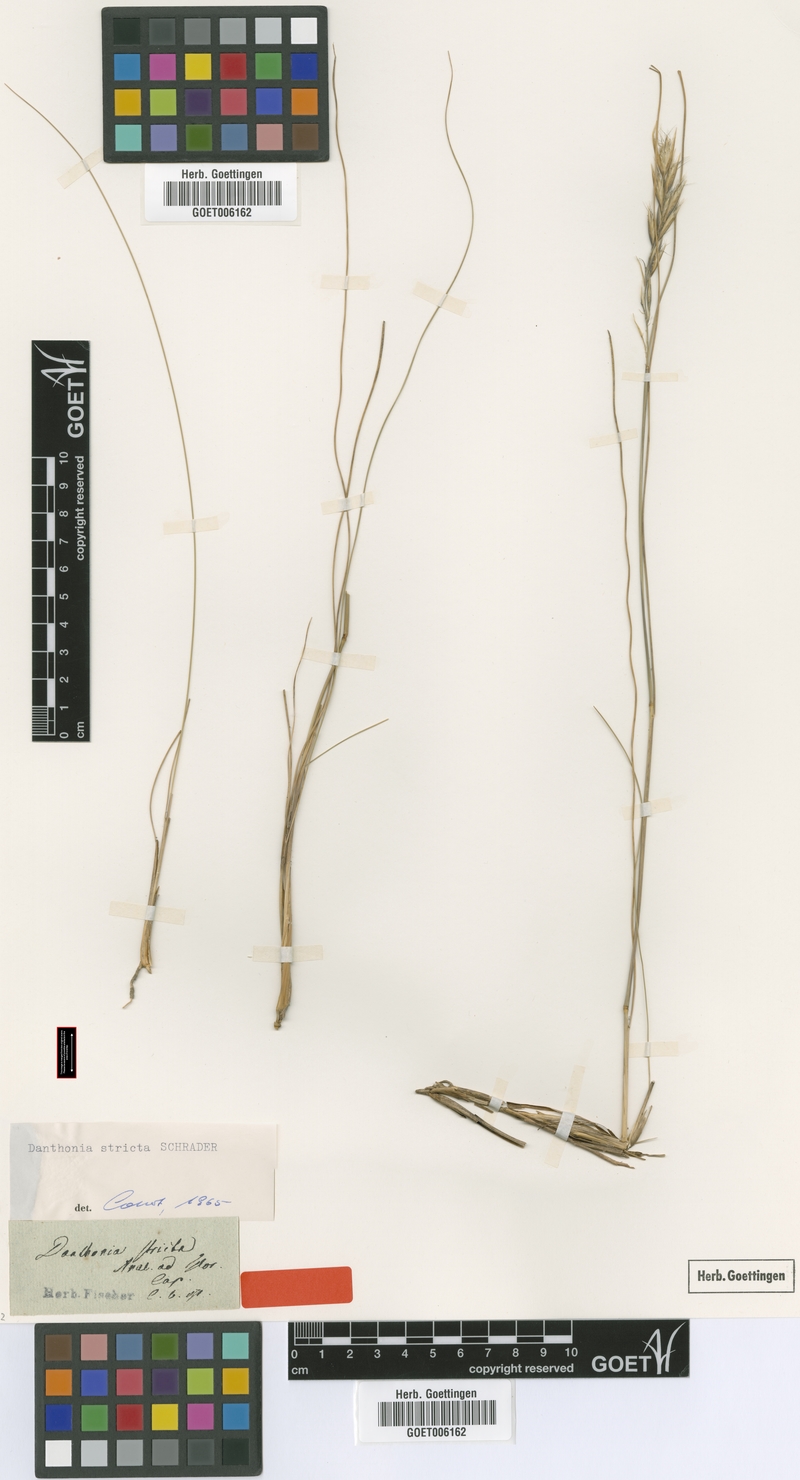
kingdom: Plantae
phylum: Tracheophyta
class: Liliopsida
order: Poales
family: Poaceae
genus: Tenaxia
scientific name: Tenaxia stricta
